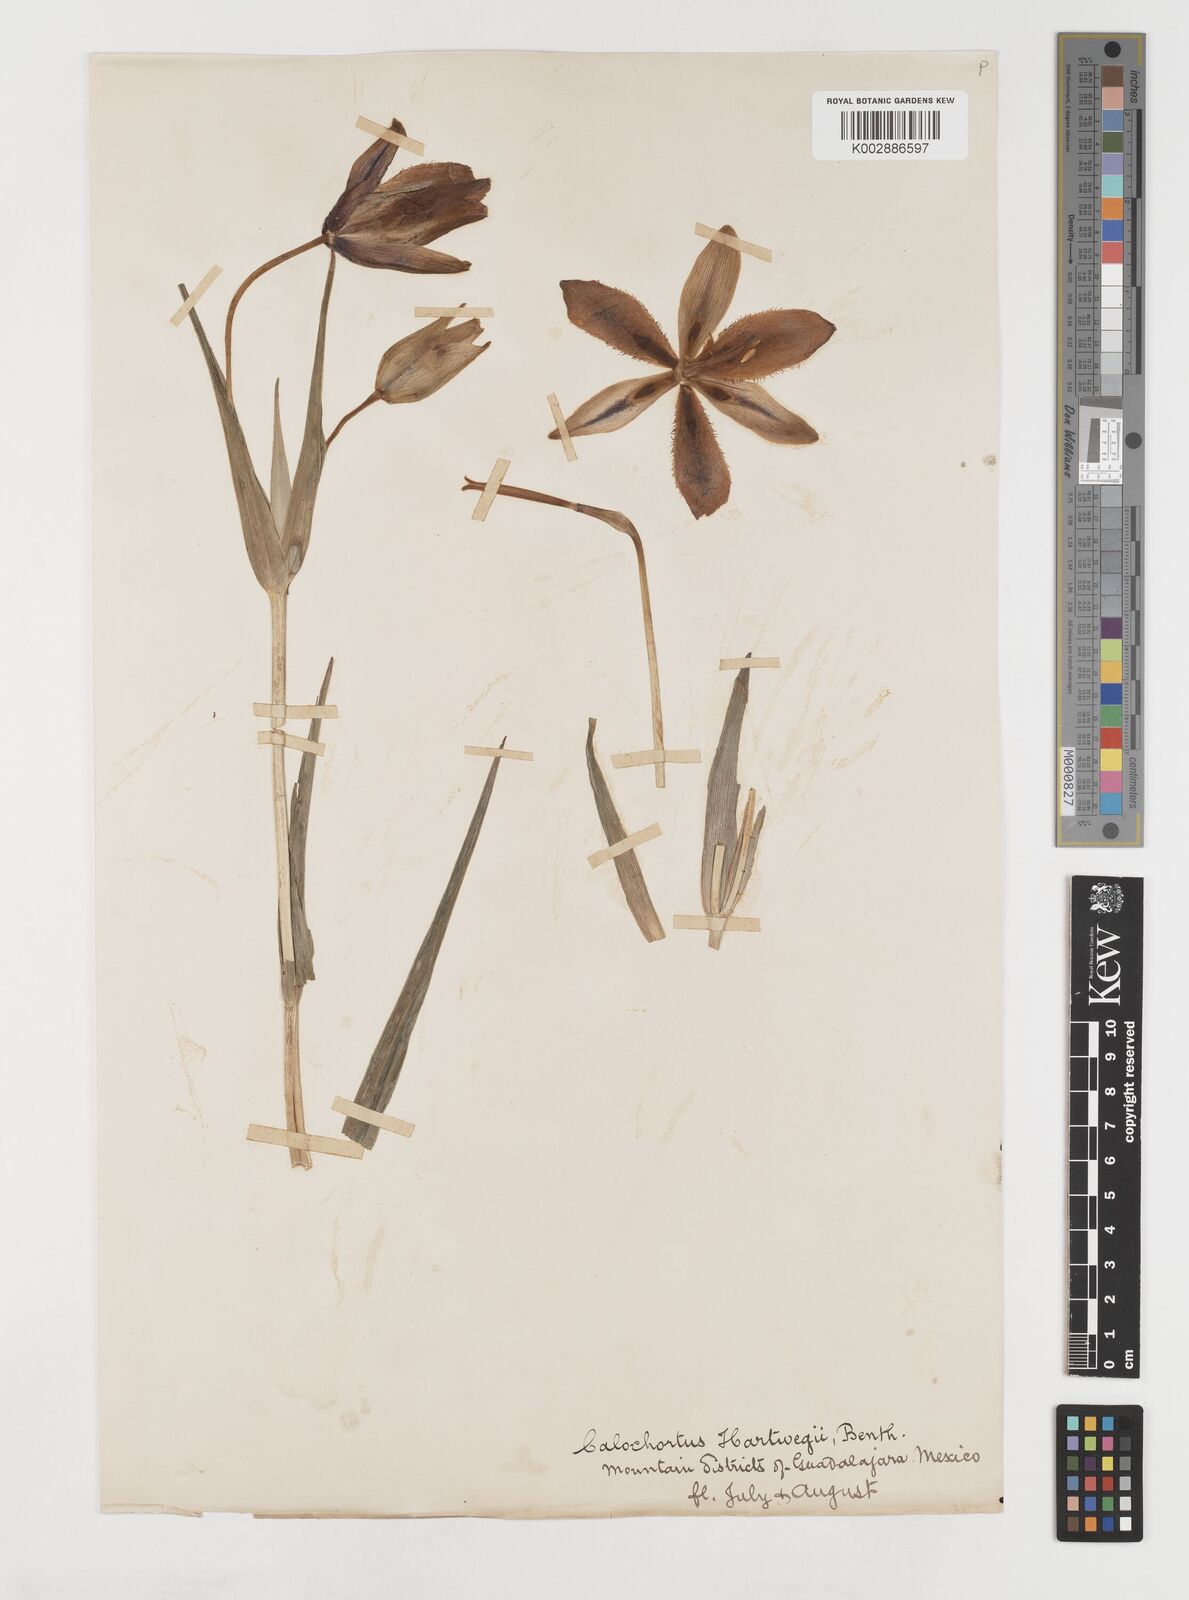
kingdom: Plantae
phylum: Tracheophyta
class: Liliopsida
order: Liliales
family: Liliaceae
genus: Calochortus
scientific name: Calochortus hartwegii
